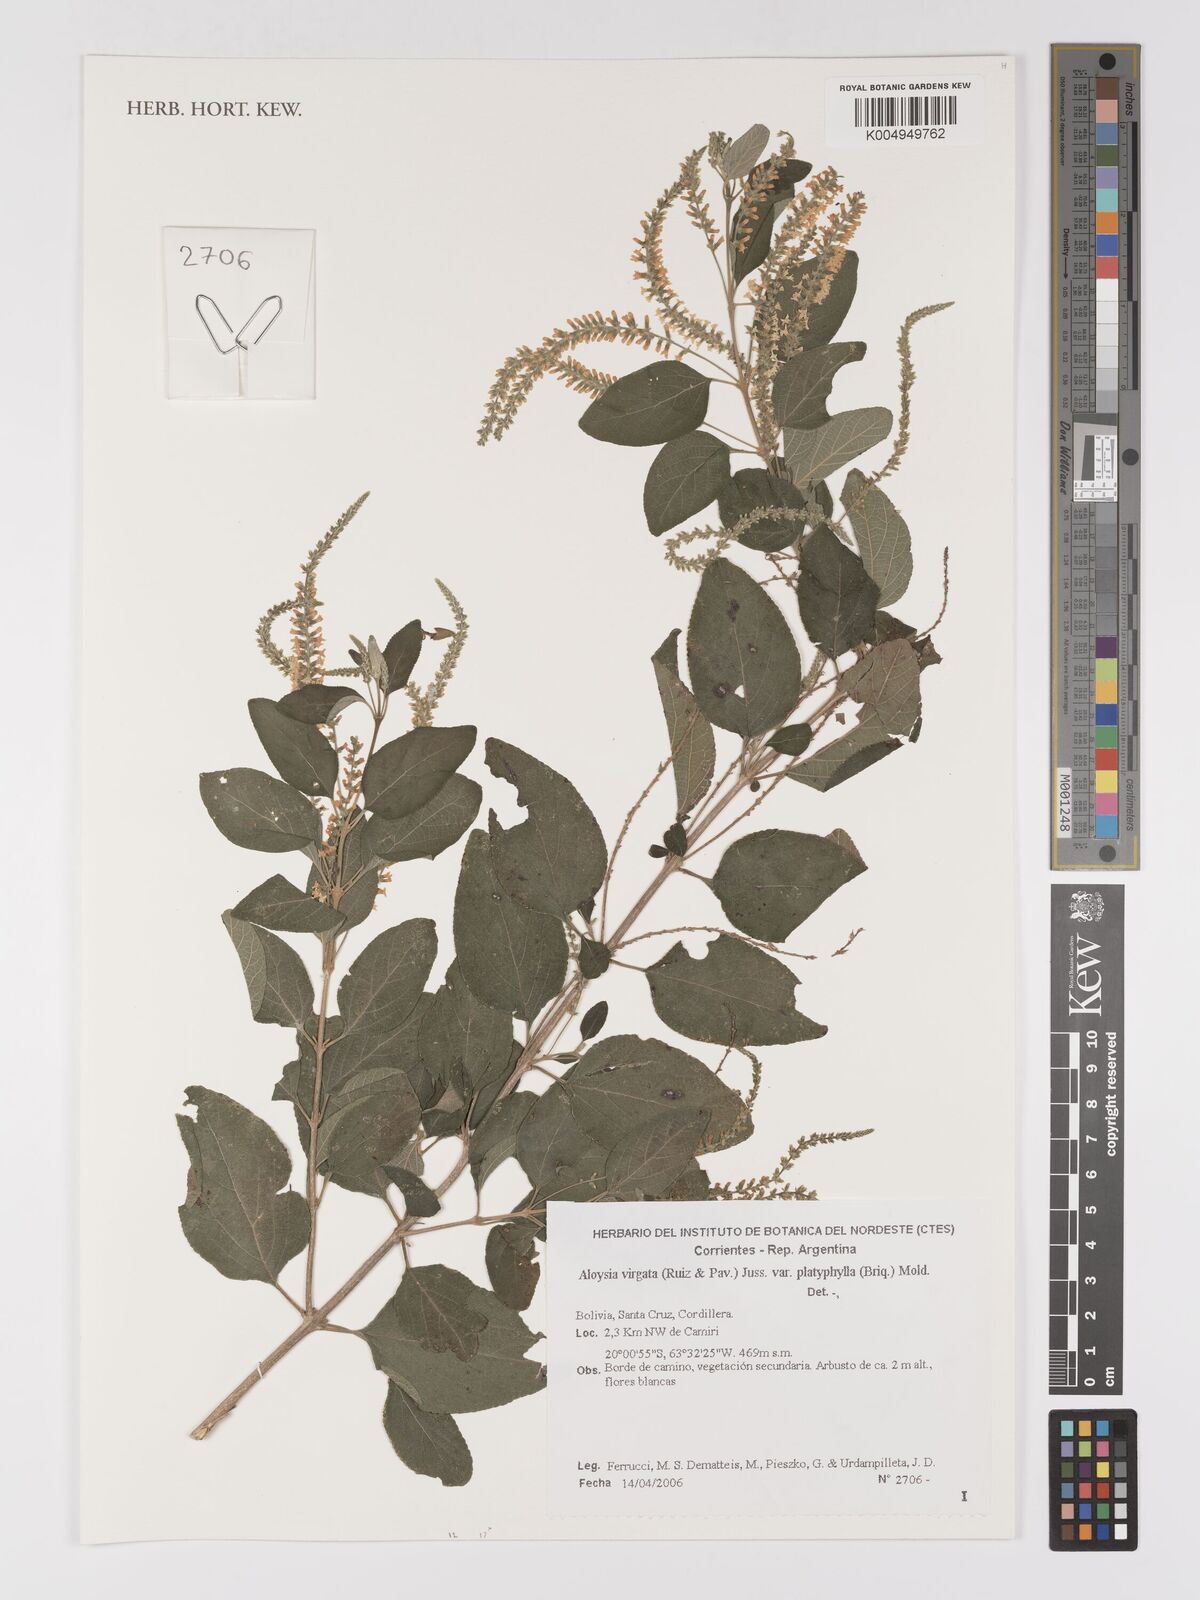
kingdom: Plantae
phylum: Tracheophyta
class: Magnoliopsida
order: Lamiales
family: Verbenaceae
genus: Aloysia
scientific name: Aloysia virgata
